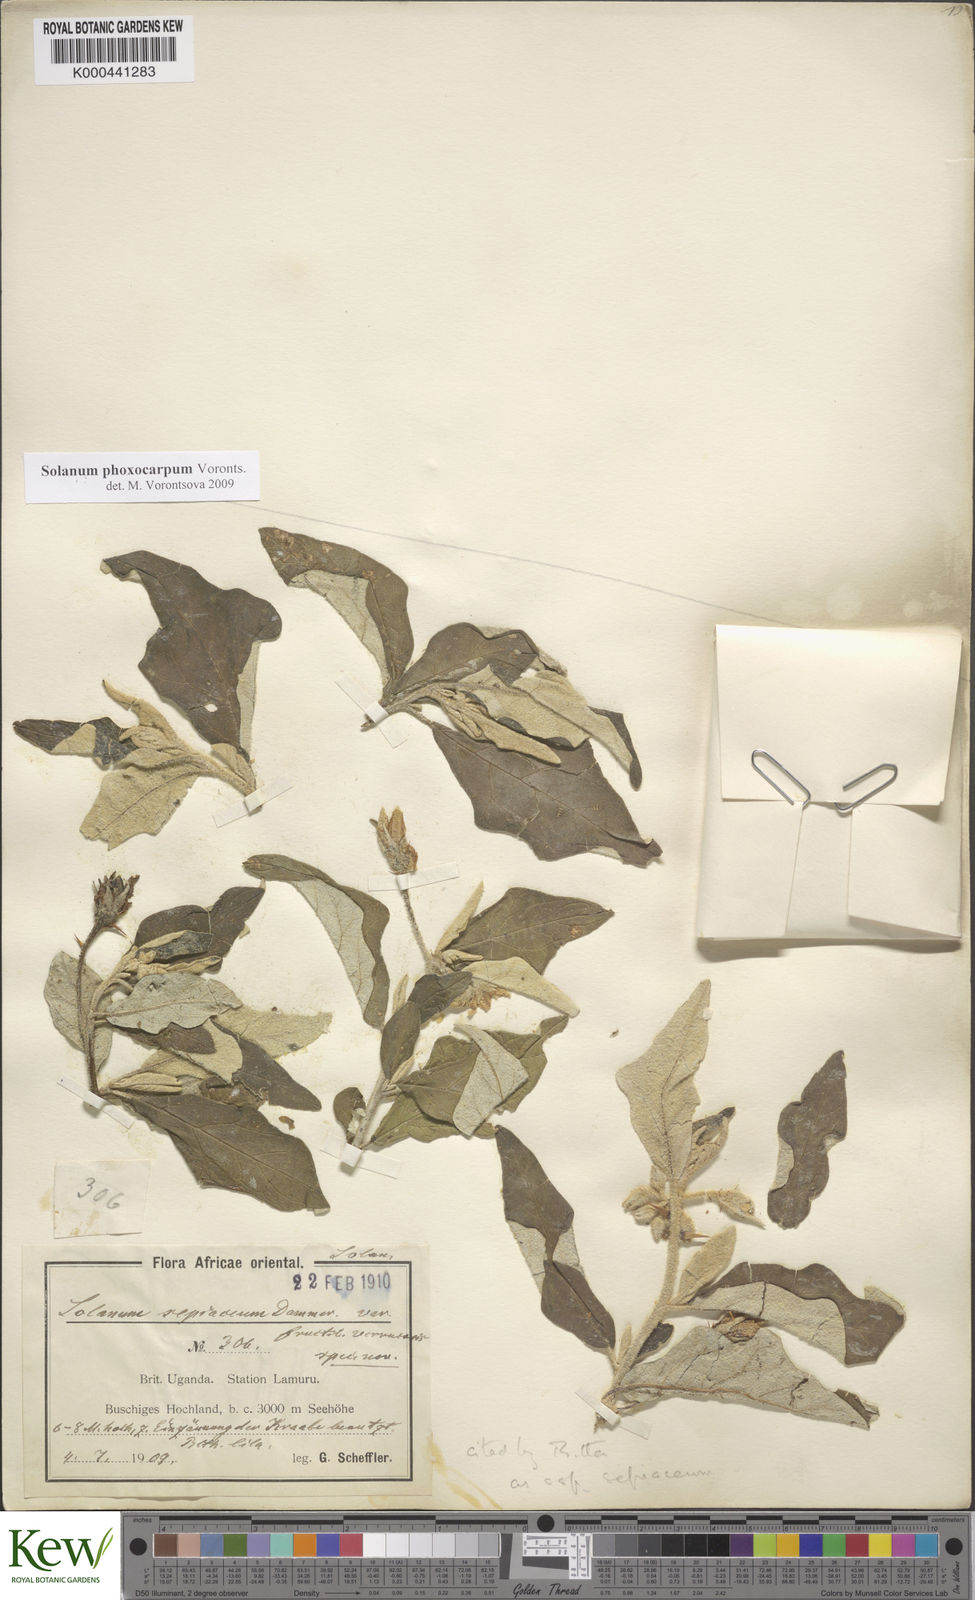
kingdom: Plantae
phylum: Tracheophyta
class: Magnoliopsida
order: Solanales
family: Solanaceae
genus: Solanum
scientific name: Solanum aculeastrum
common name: Goat bitter-apple
